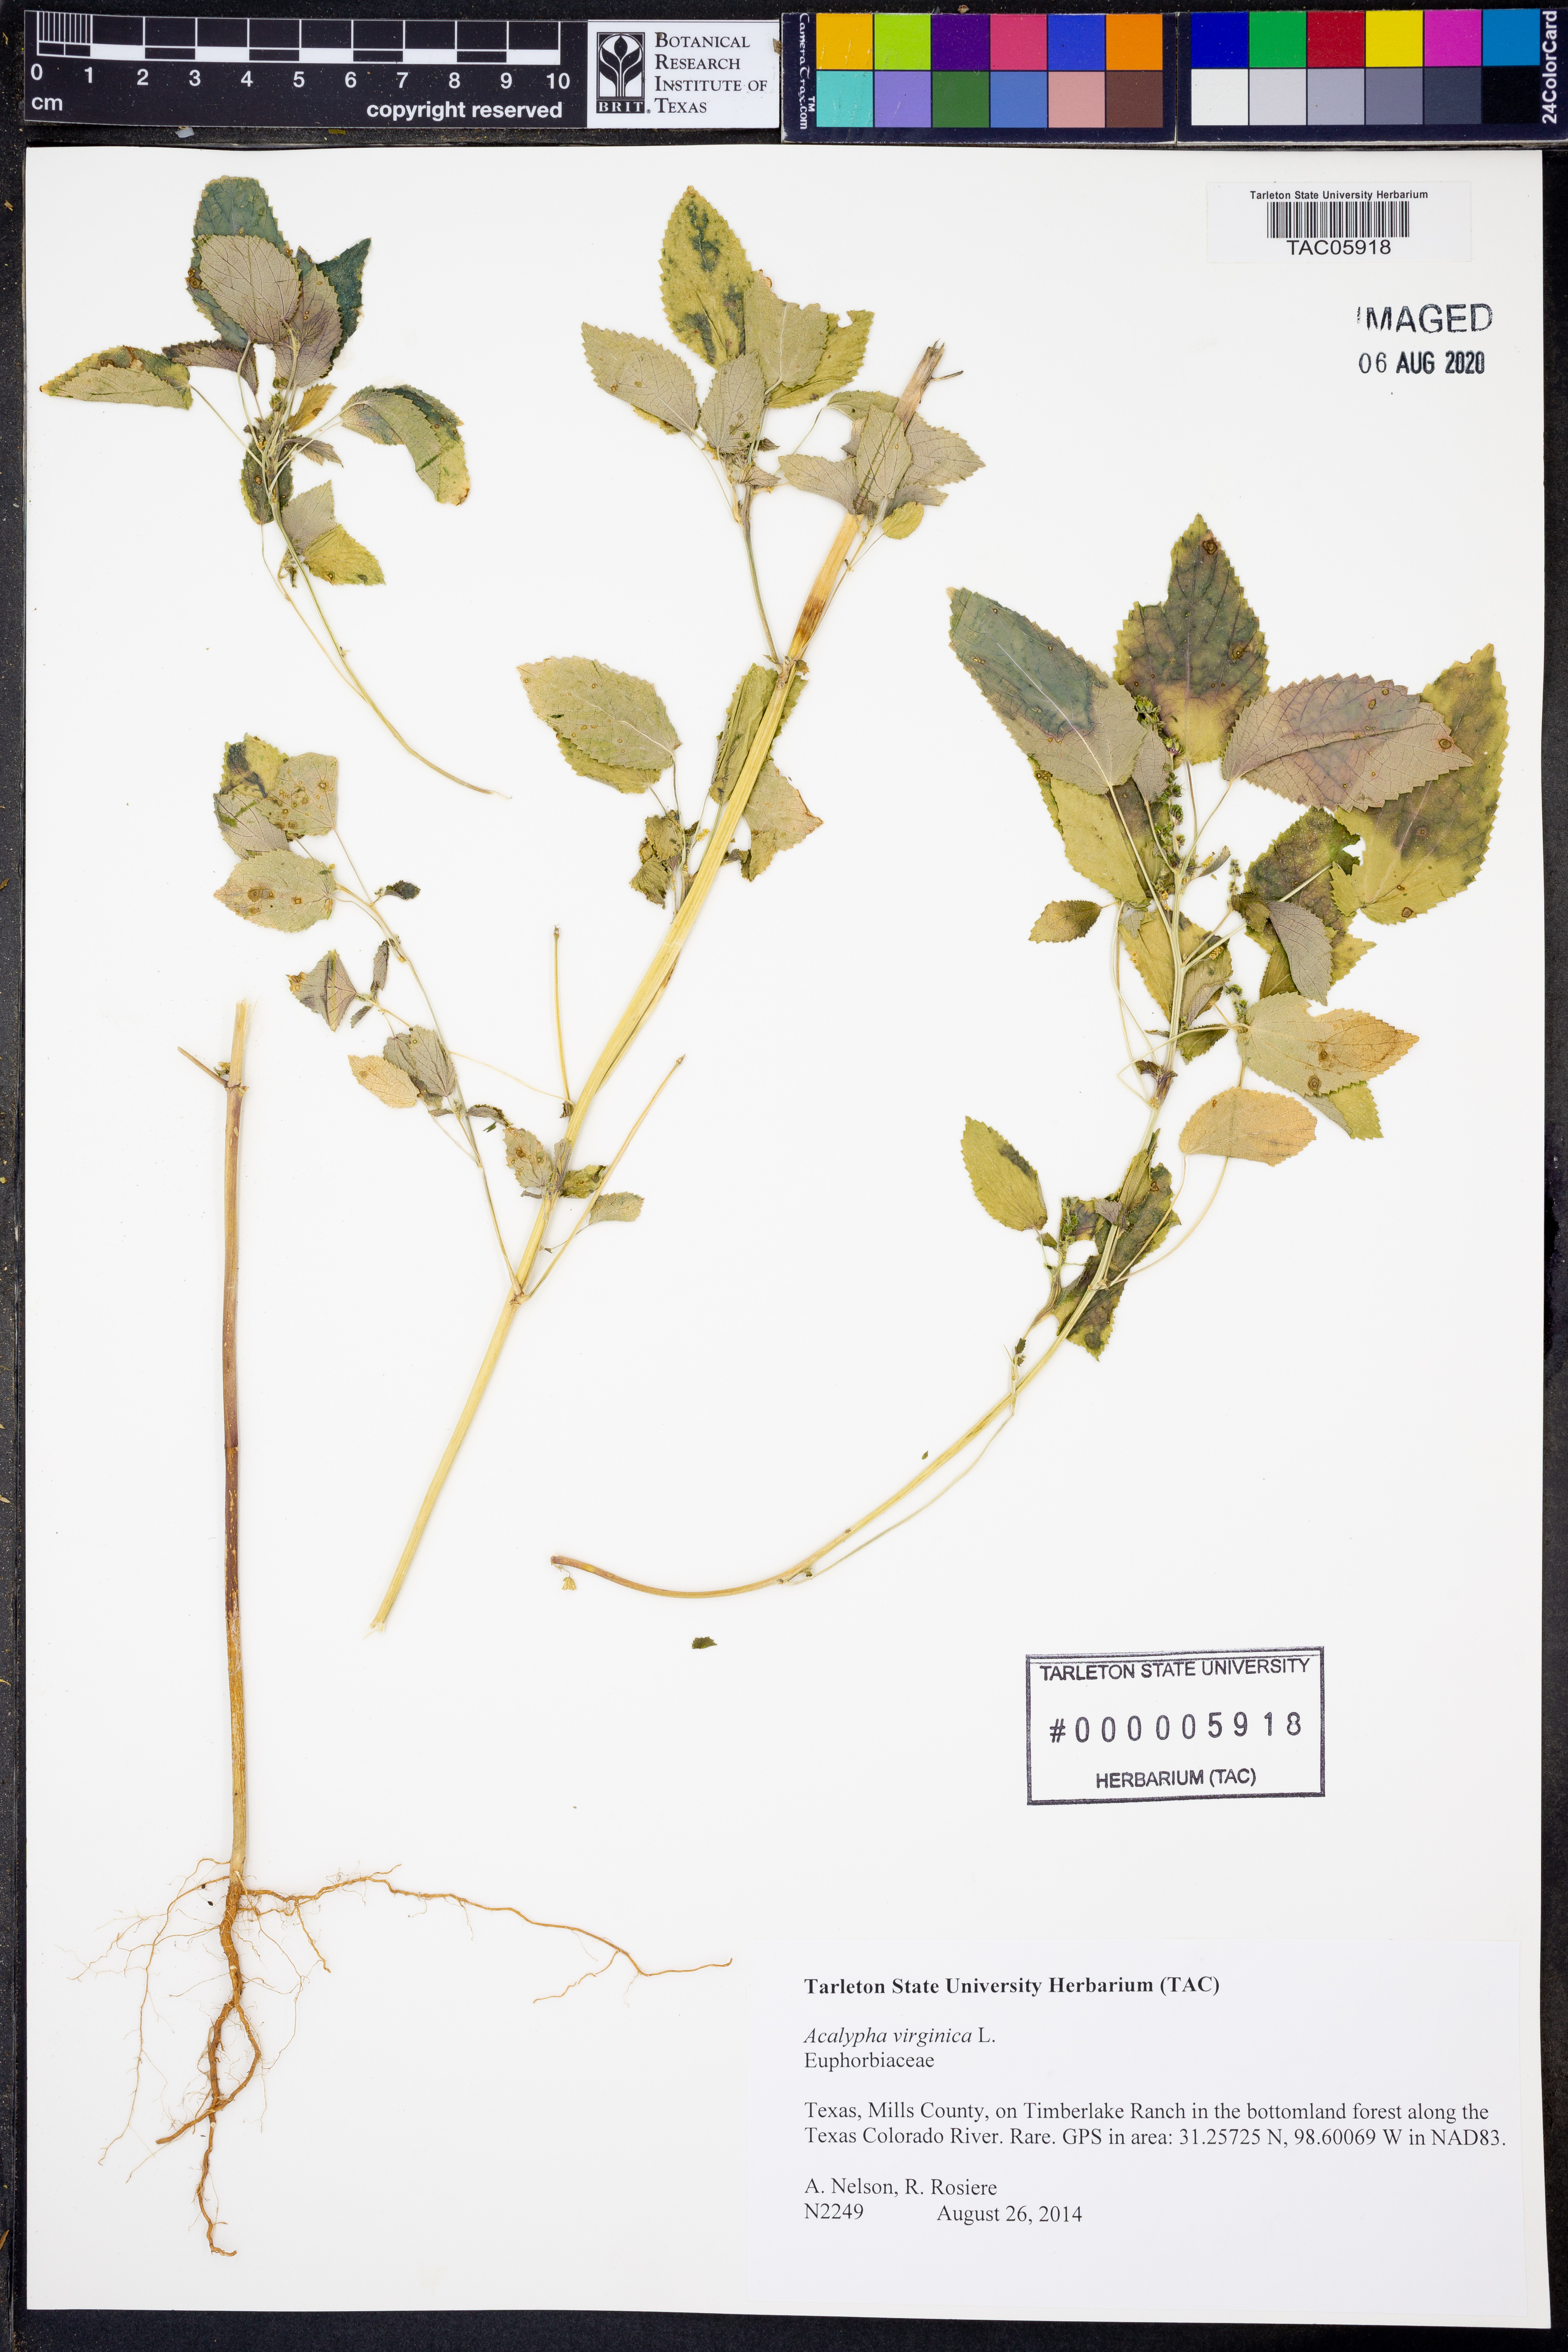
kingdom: Plantae
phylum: Tracheophyta
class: Magnoliopsida
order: Malpighiales
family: Euphorbiaceae
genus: Acalypha
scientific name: Acalypha virginica
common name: Virginia copperleaf
